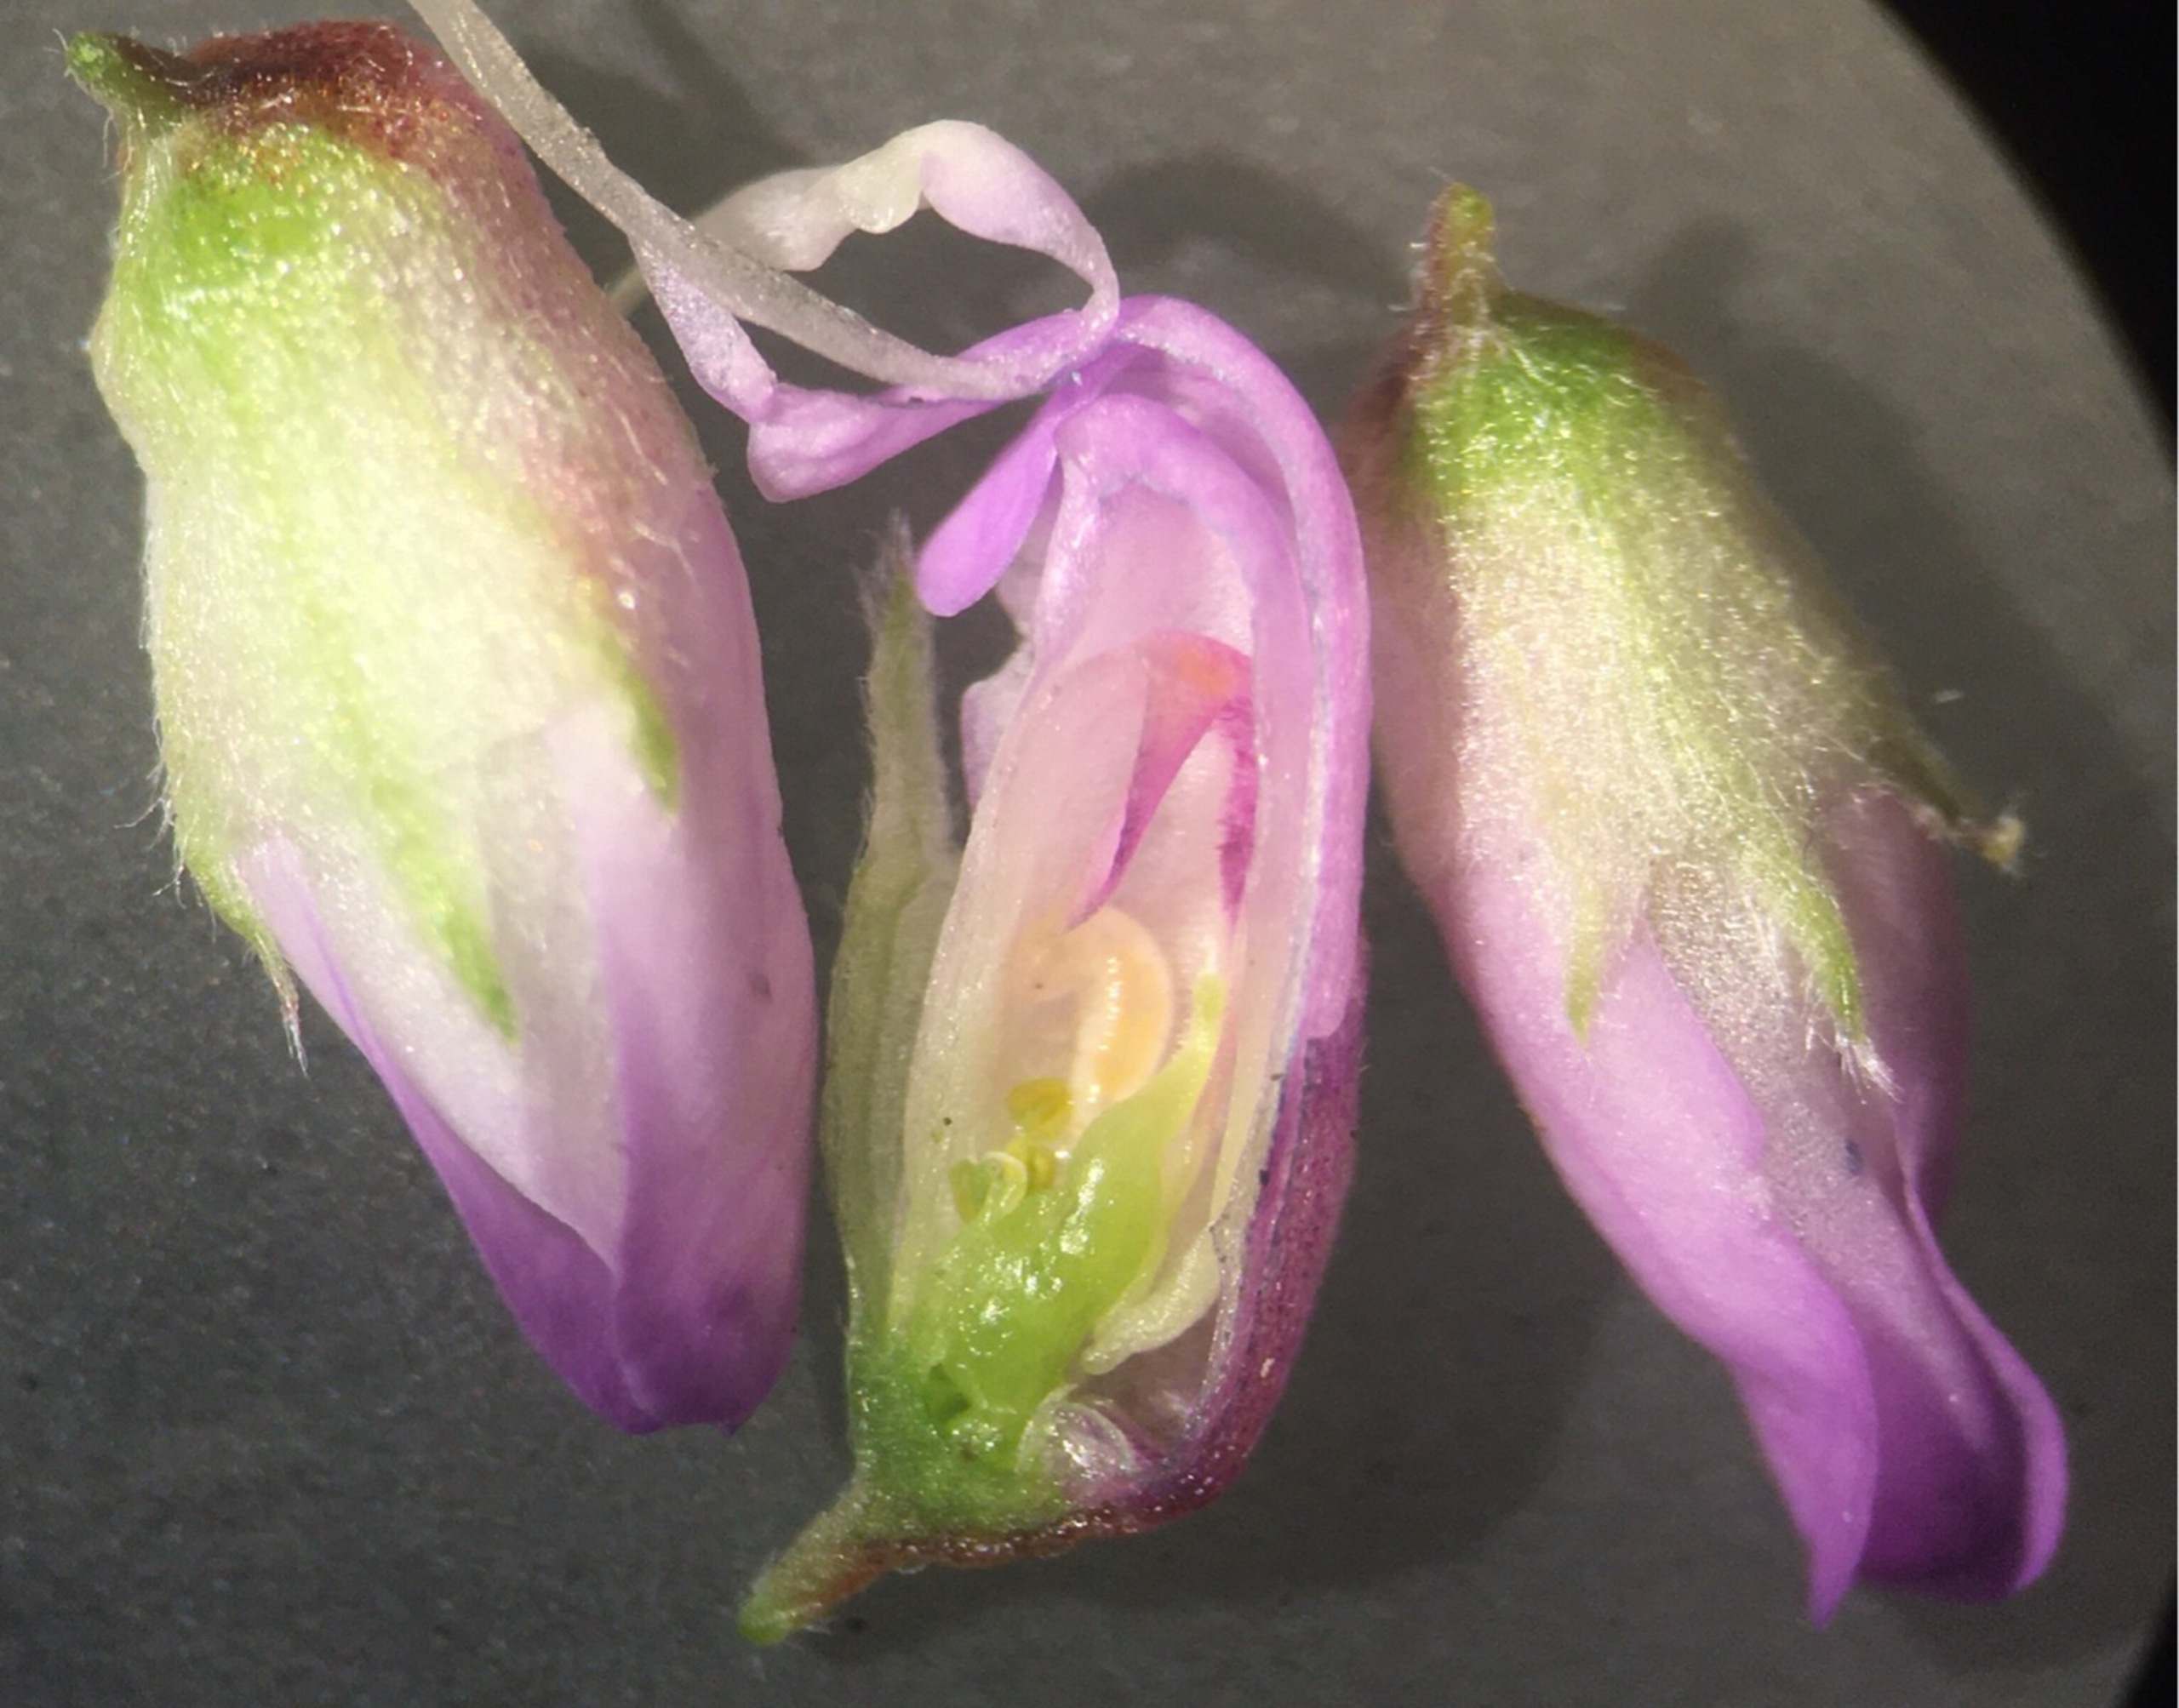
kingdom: Animalia
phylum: Arthropoda
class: Insecta
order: Diptera
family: Cecidomyiidae
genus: Contarinia
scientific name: Contarinia craccae
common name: Vikkeblomstgalmyg
